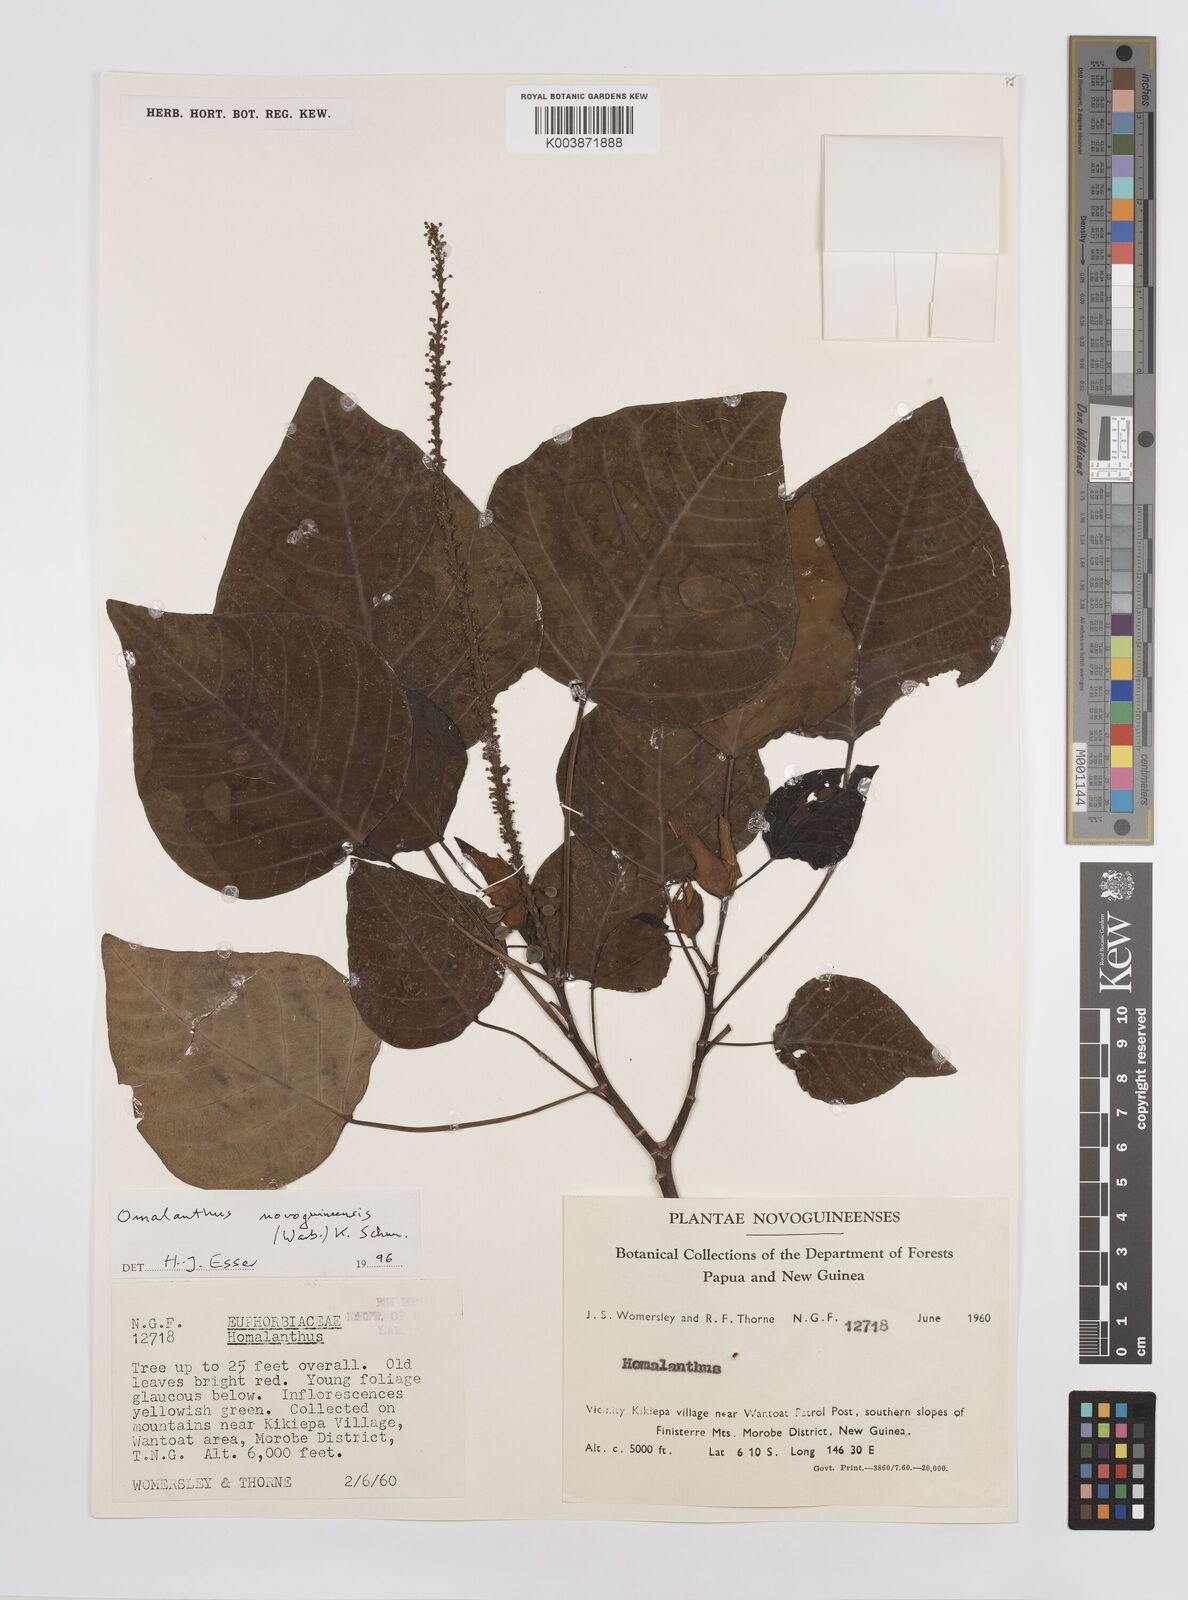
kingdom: Plantae
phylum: Tracheophyta
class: Magnoliopsida
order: Malpighiales
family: Euphorbiaceae
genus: Homalanthus
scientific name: Homalanthus novoguineensis
